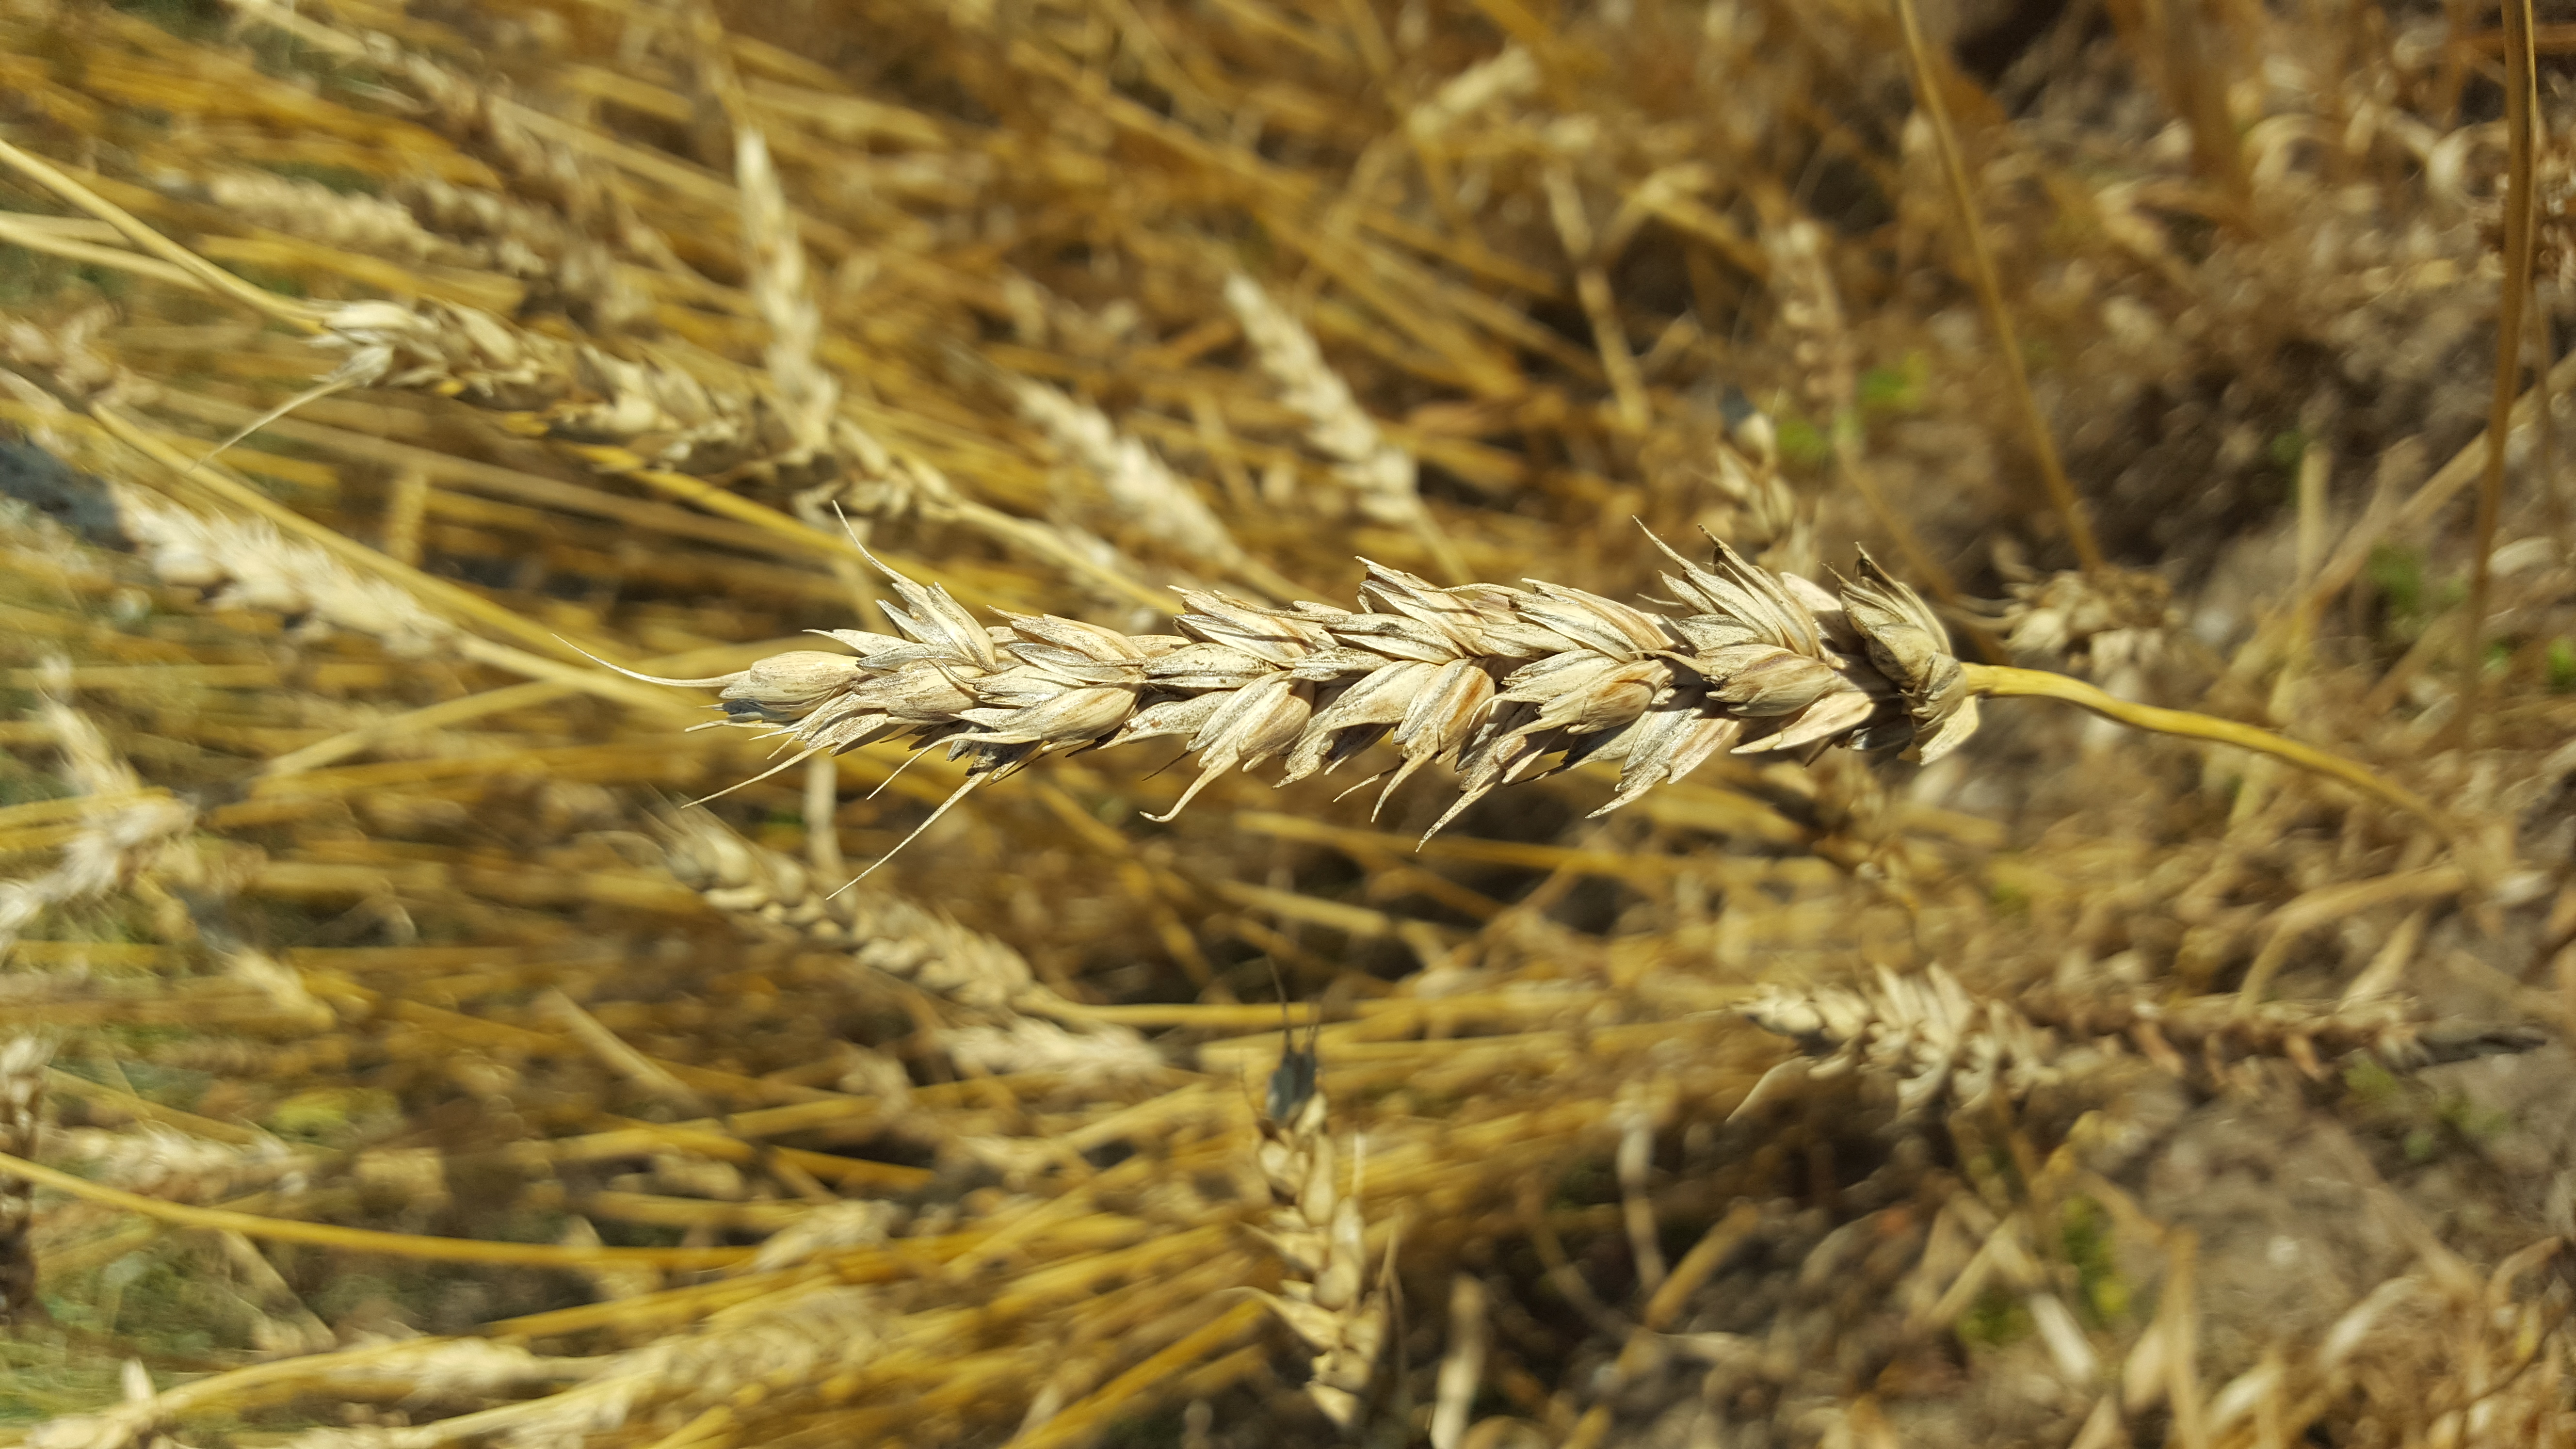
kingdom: Plantae
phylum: Tracheophyta
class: Liliopsida
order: Poales
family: Poaceae
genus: Triticum
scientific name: Triticum aestivum
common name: Common wheat
